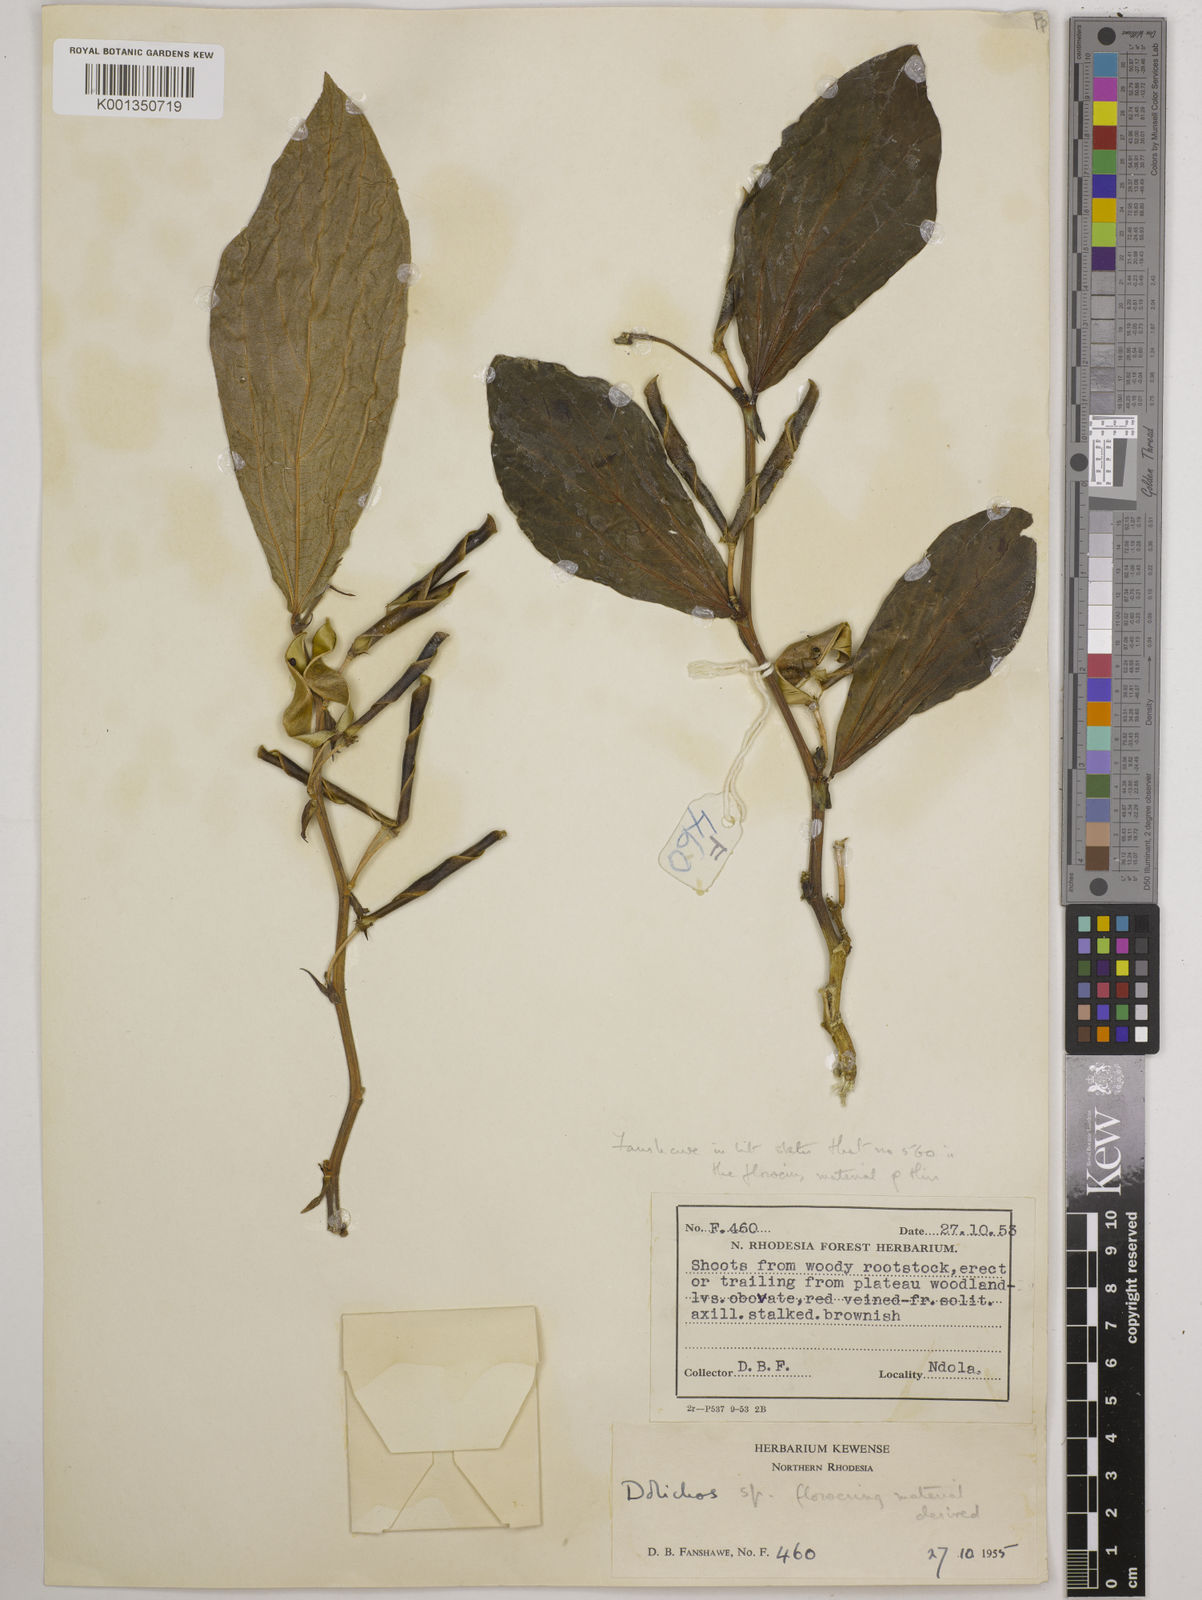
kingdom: Plantae
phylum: Tracheophyta
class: Magnoliopsida
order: Fabales
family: Fabaceae
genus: Dolichos
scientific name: Dolichos
